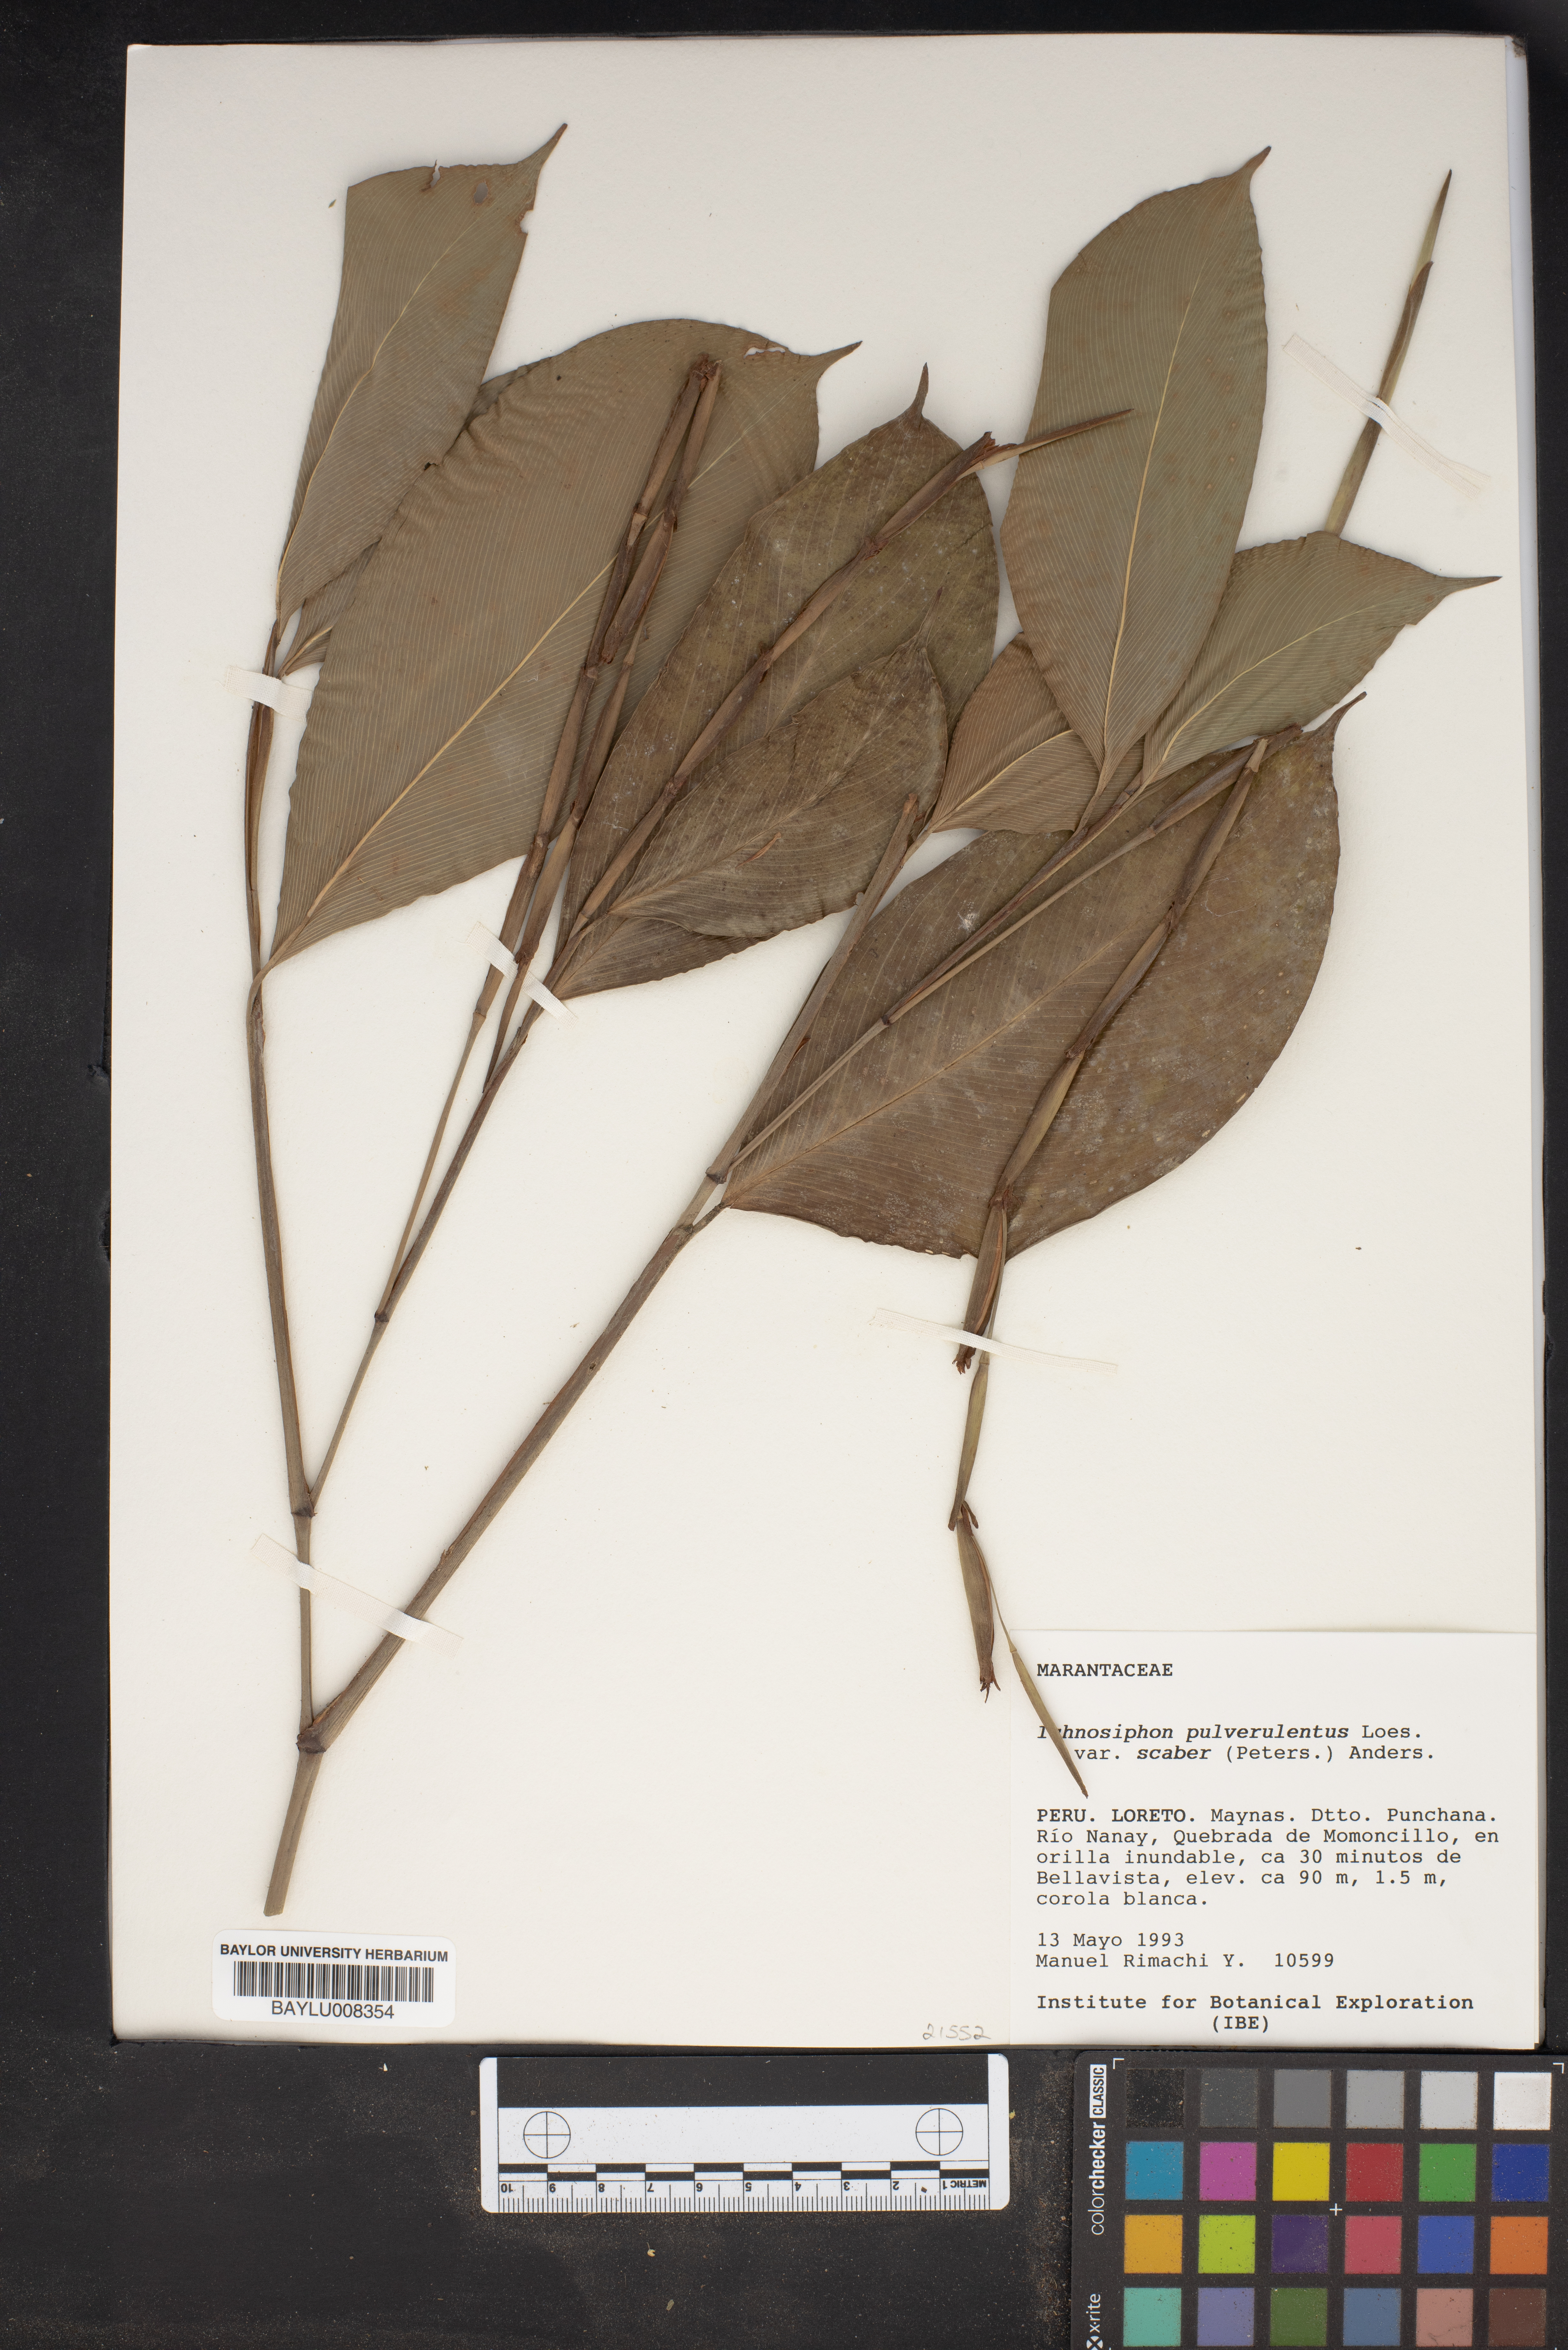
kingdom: Plantae
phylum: Tracheophyta
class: Liliopsida
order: Zingiberales
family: Marantaceae
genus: Ischnosiphon
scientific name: Ischnosiphon
